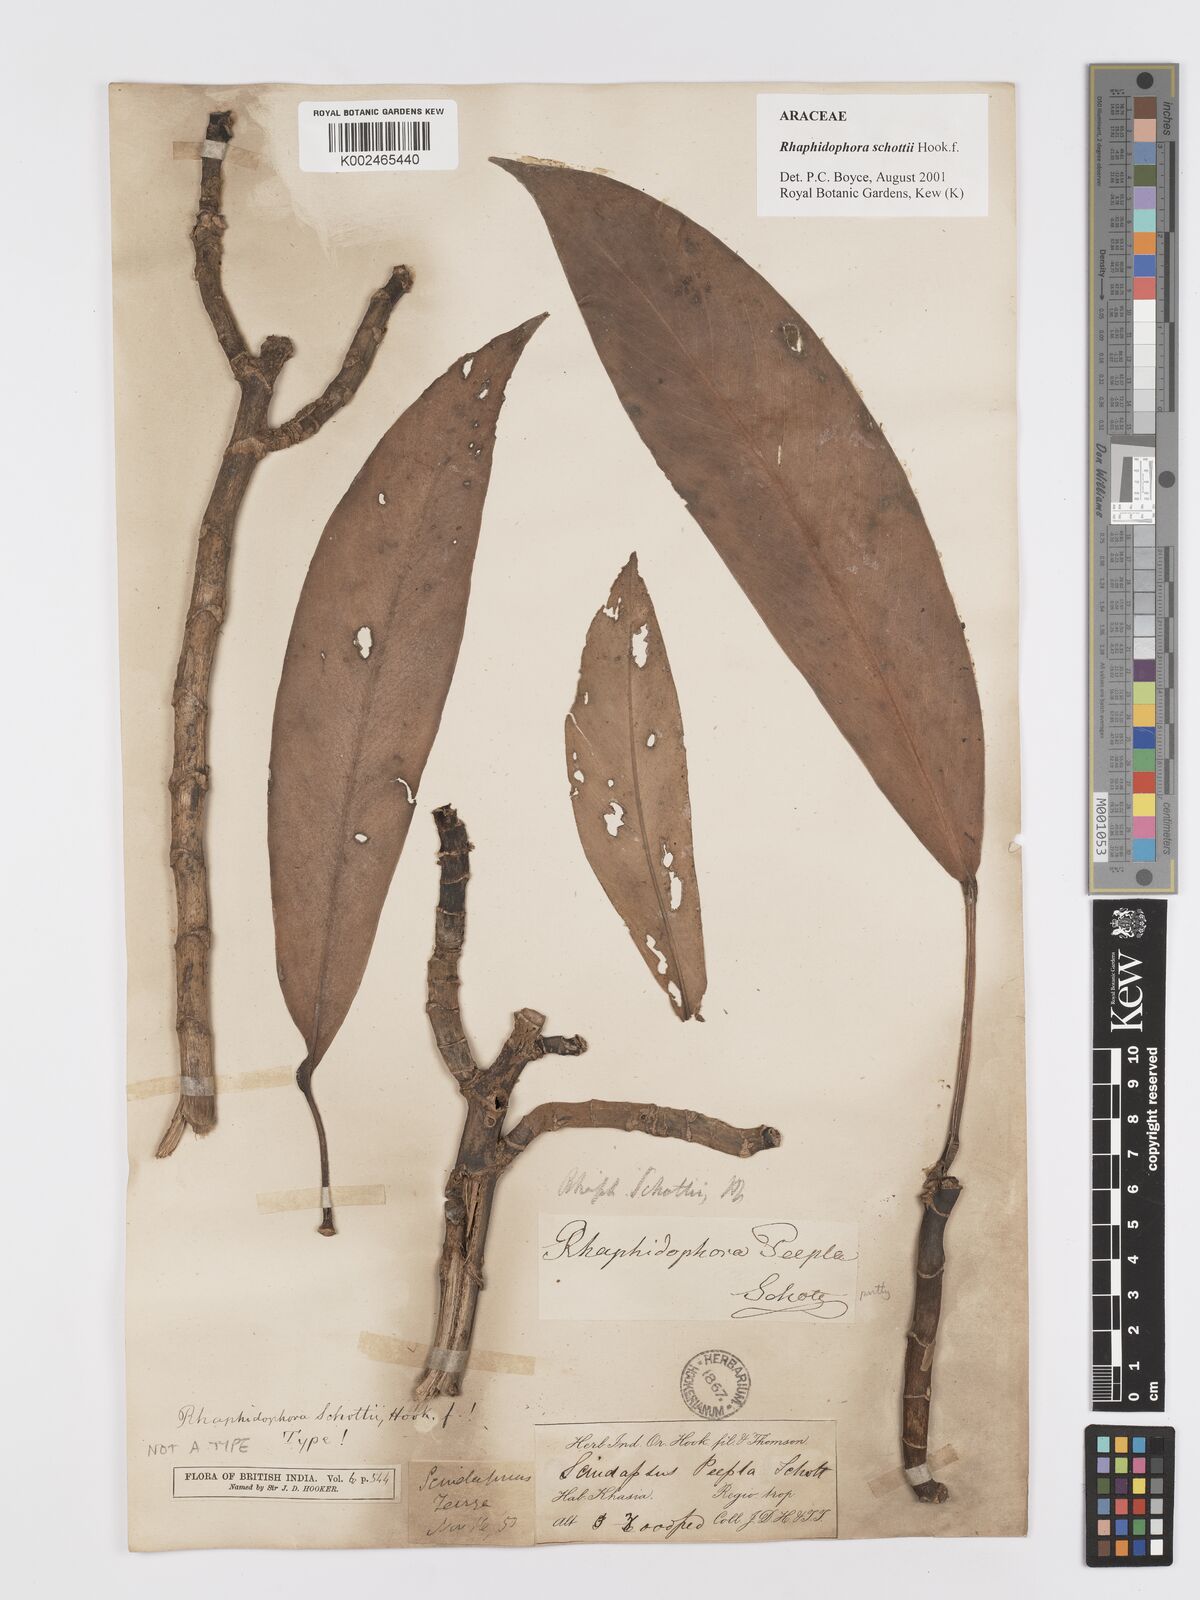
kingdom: Plantae
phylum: Tracheophyta
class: Liliopsida
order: Alismatales
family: Araceae
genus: Rhaphidophora
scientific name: Rhaphidophora schottii
